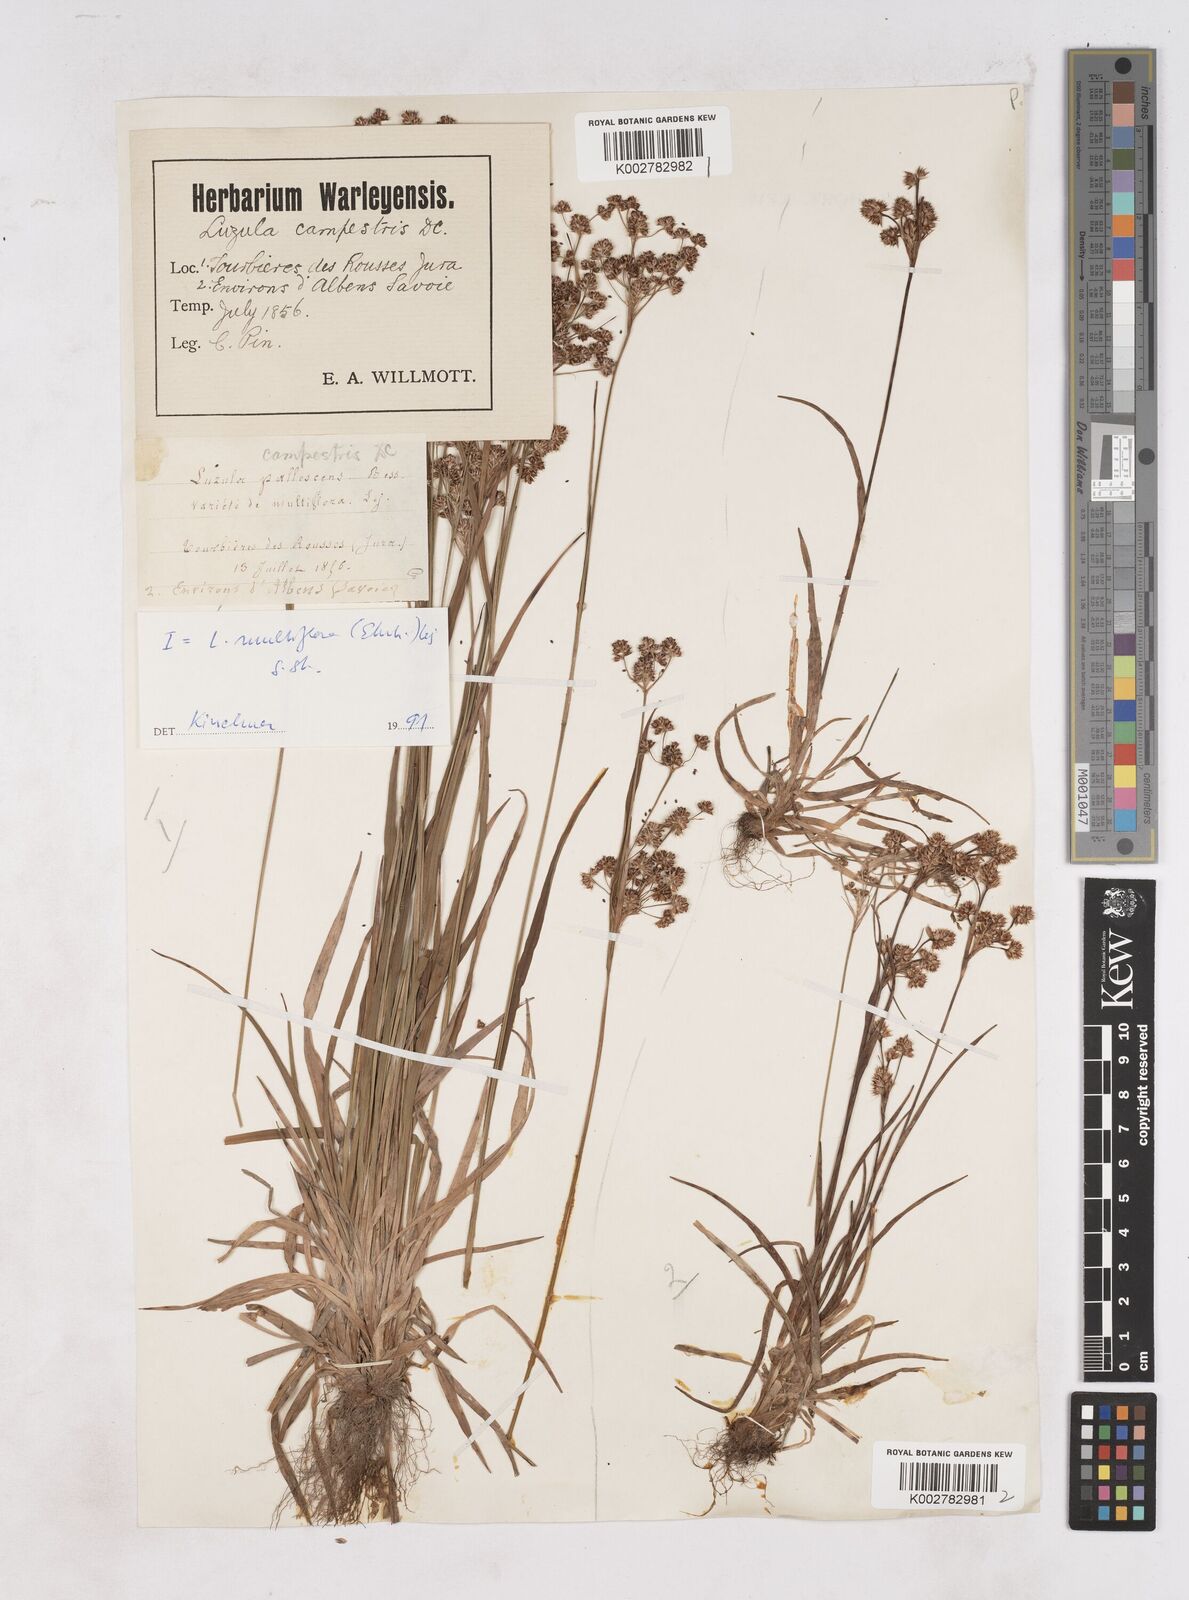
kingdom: Plantae
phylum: Tracheophyta
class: Liliopsida
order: Poales
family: Juncaceae
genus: Luzula
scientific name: Luzula campestris
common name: Field wood-rush
